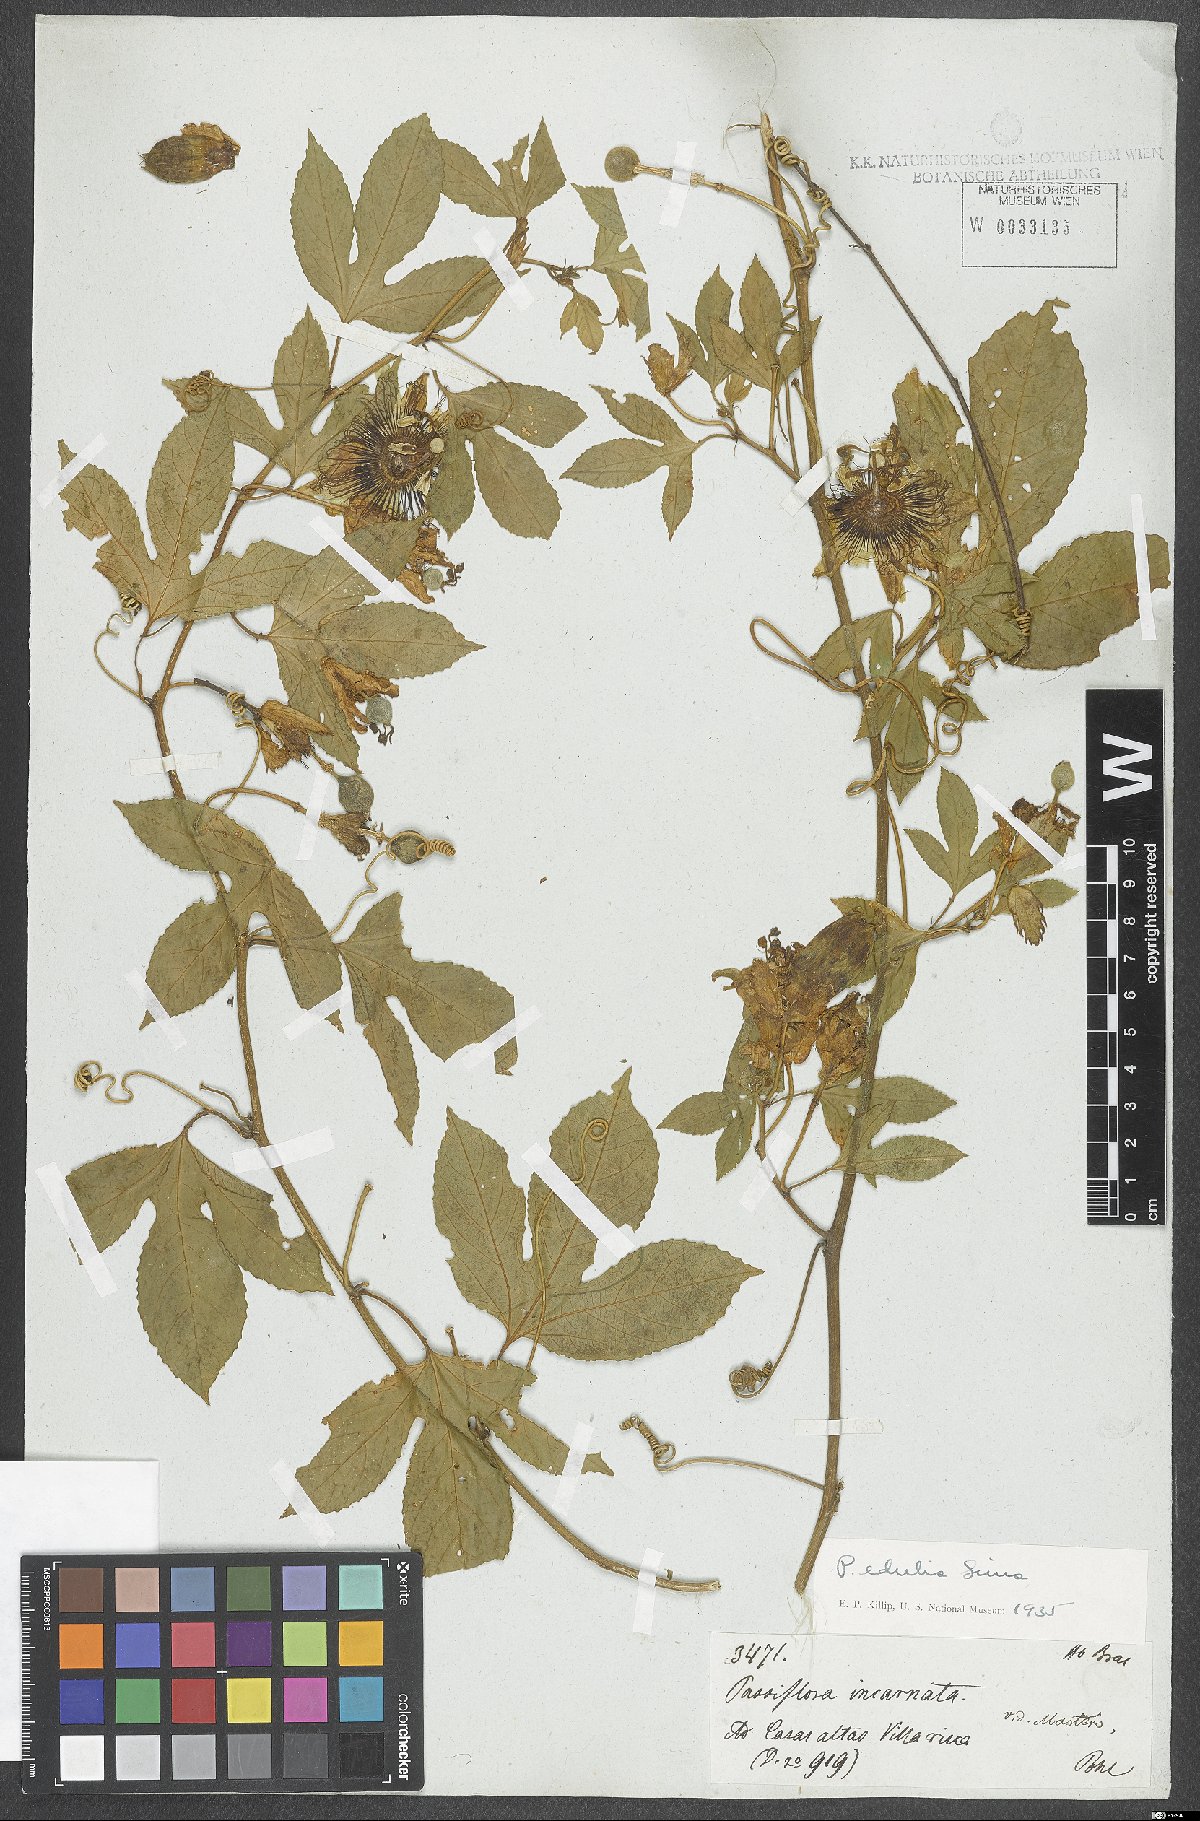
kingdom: Plantae
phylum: Tracheophyta
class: Magnoliopsida
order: Malpighiales
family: Passifloraceae
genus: Passiflora
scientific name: Passiflora incarnata
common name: Apricot-vine
